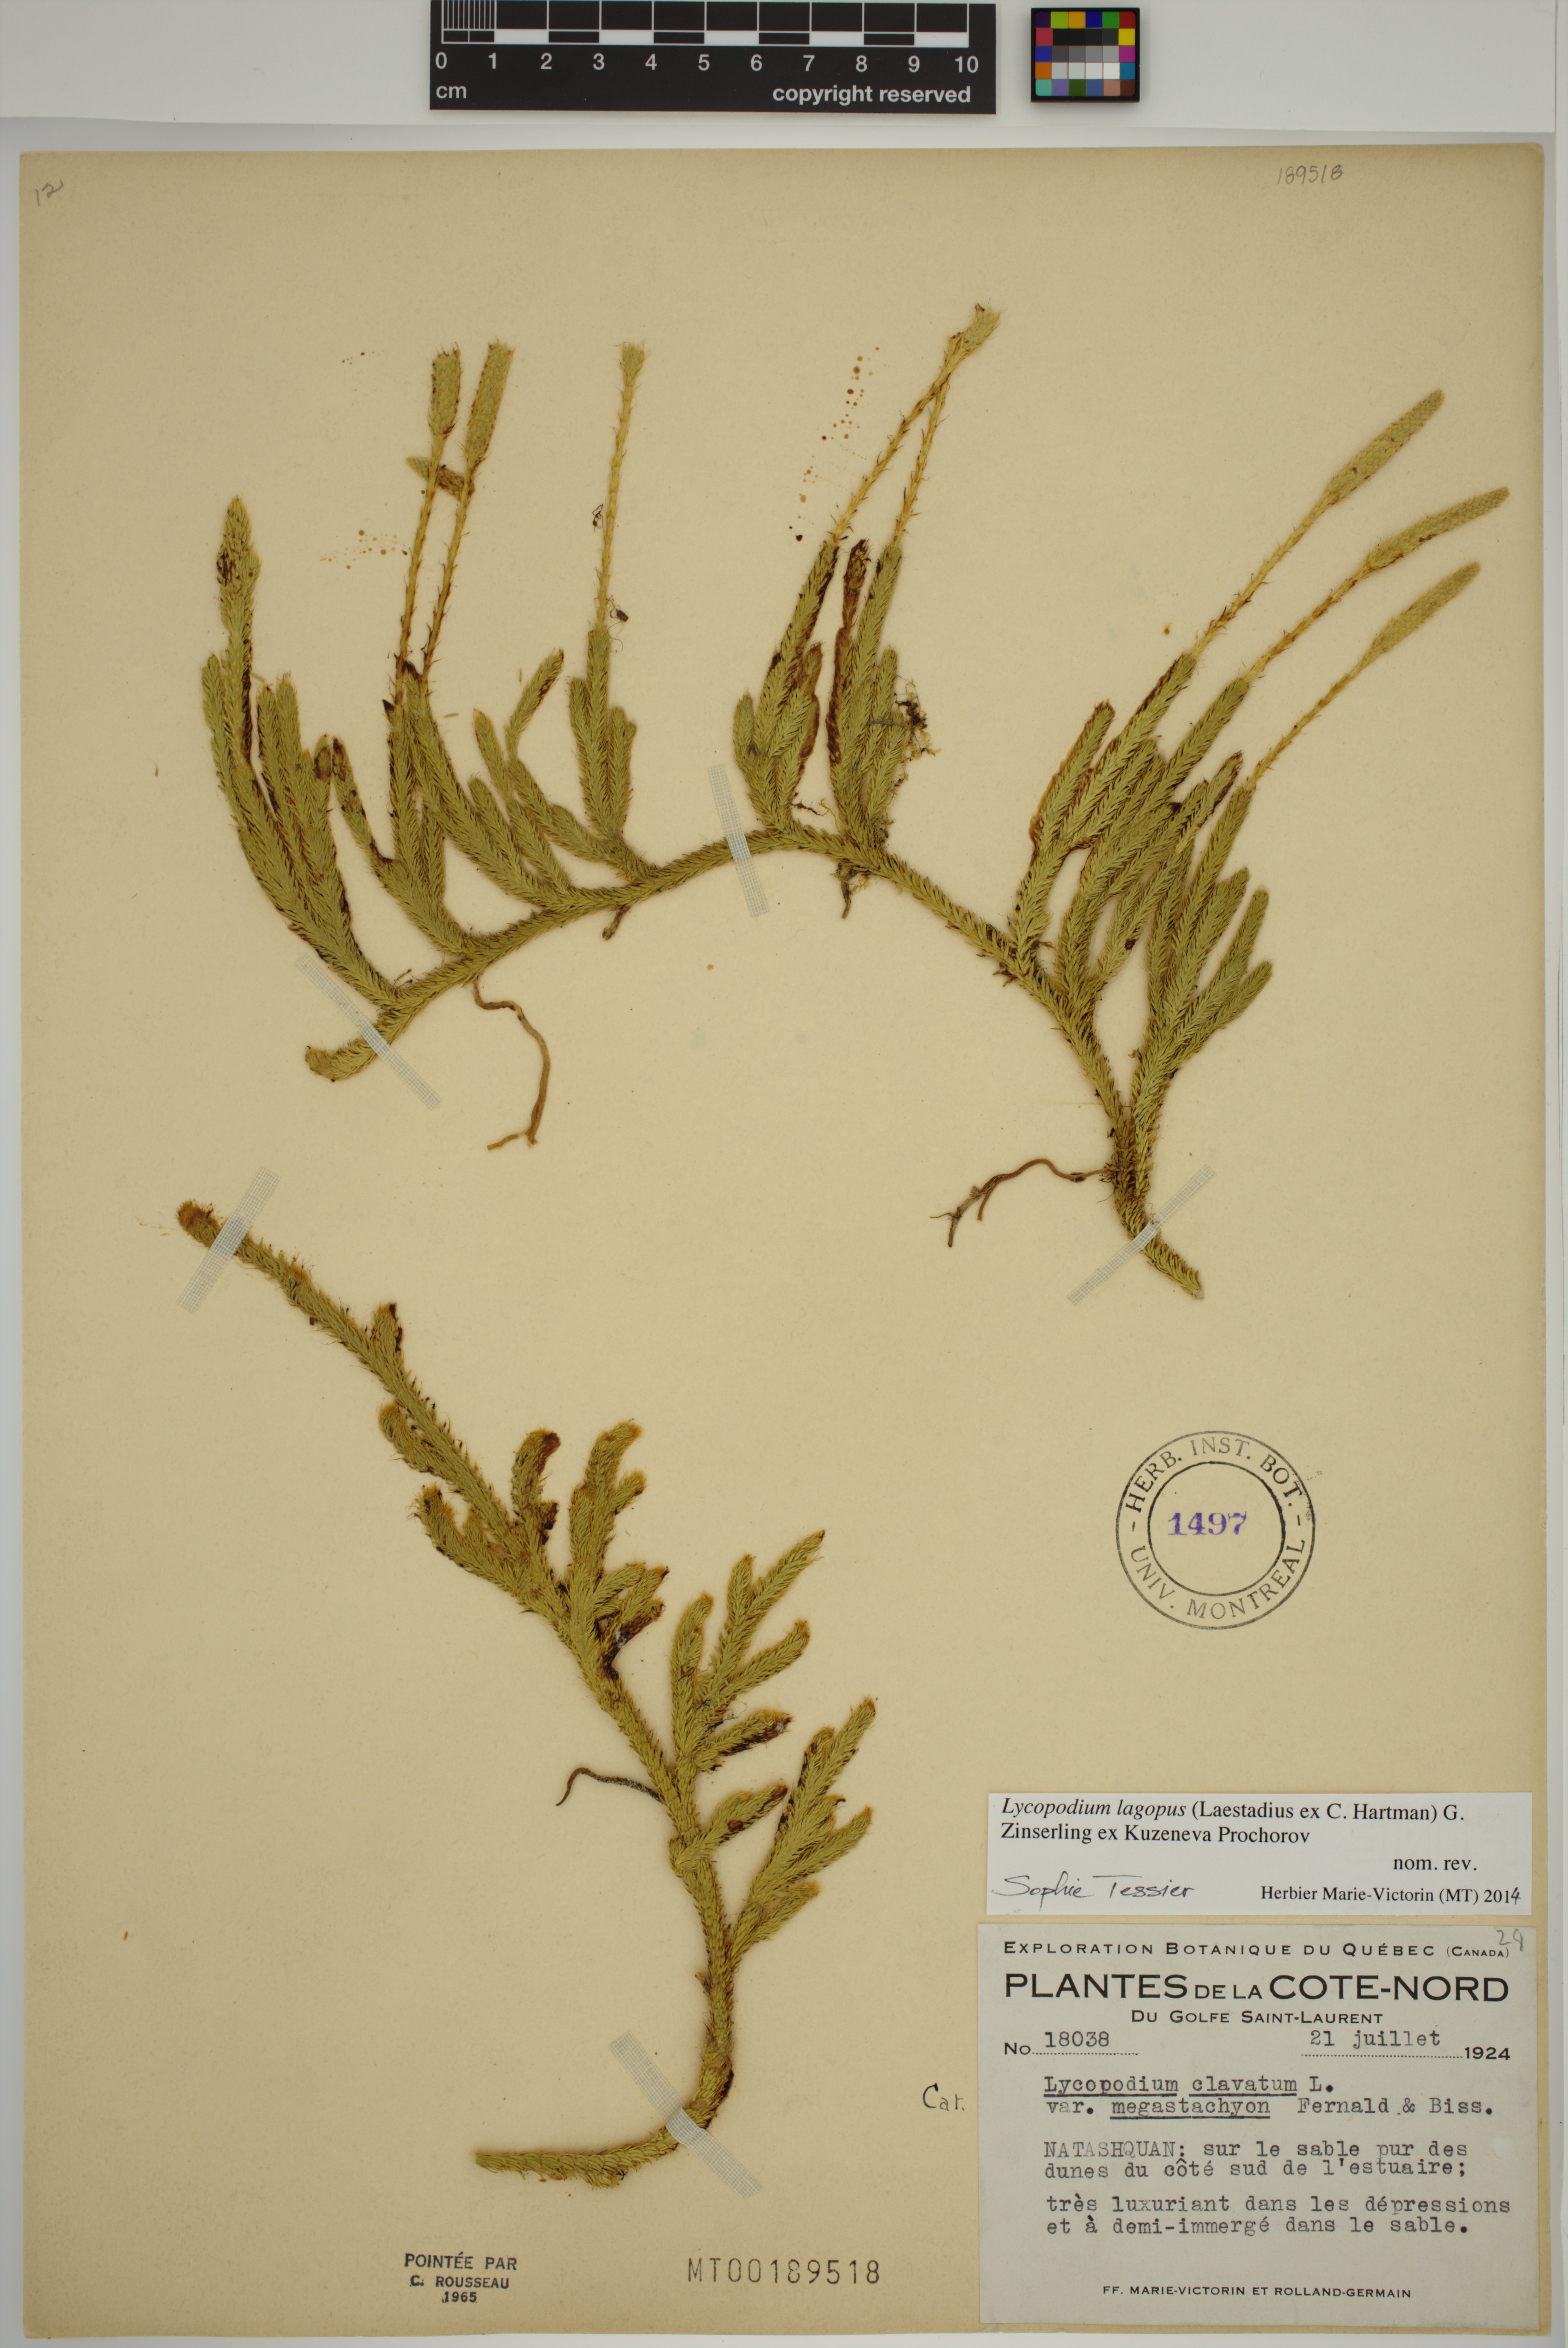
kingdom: Plantae
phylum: Tracheophyta
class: Lycopodiopsida
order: Lycopodiales
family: Lycopodiaceae
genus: Lycopodium
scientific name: Lycopodium lagopus
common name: One-cone clubmoss
